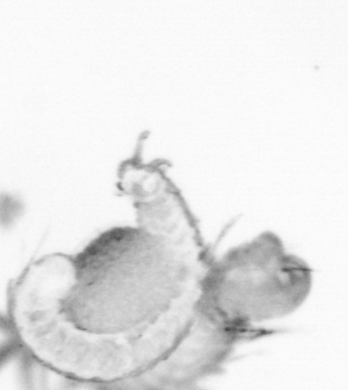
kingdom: Animalia
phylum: Annelida
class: Polychaeta
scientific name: Polychaeta
